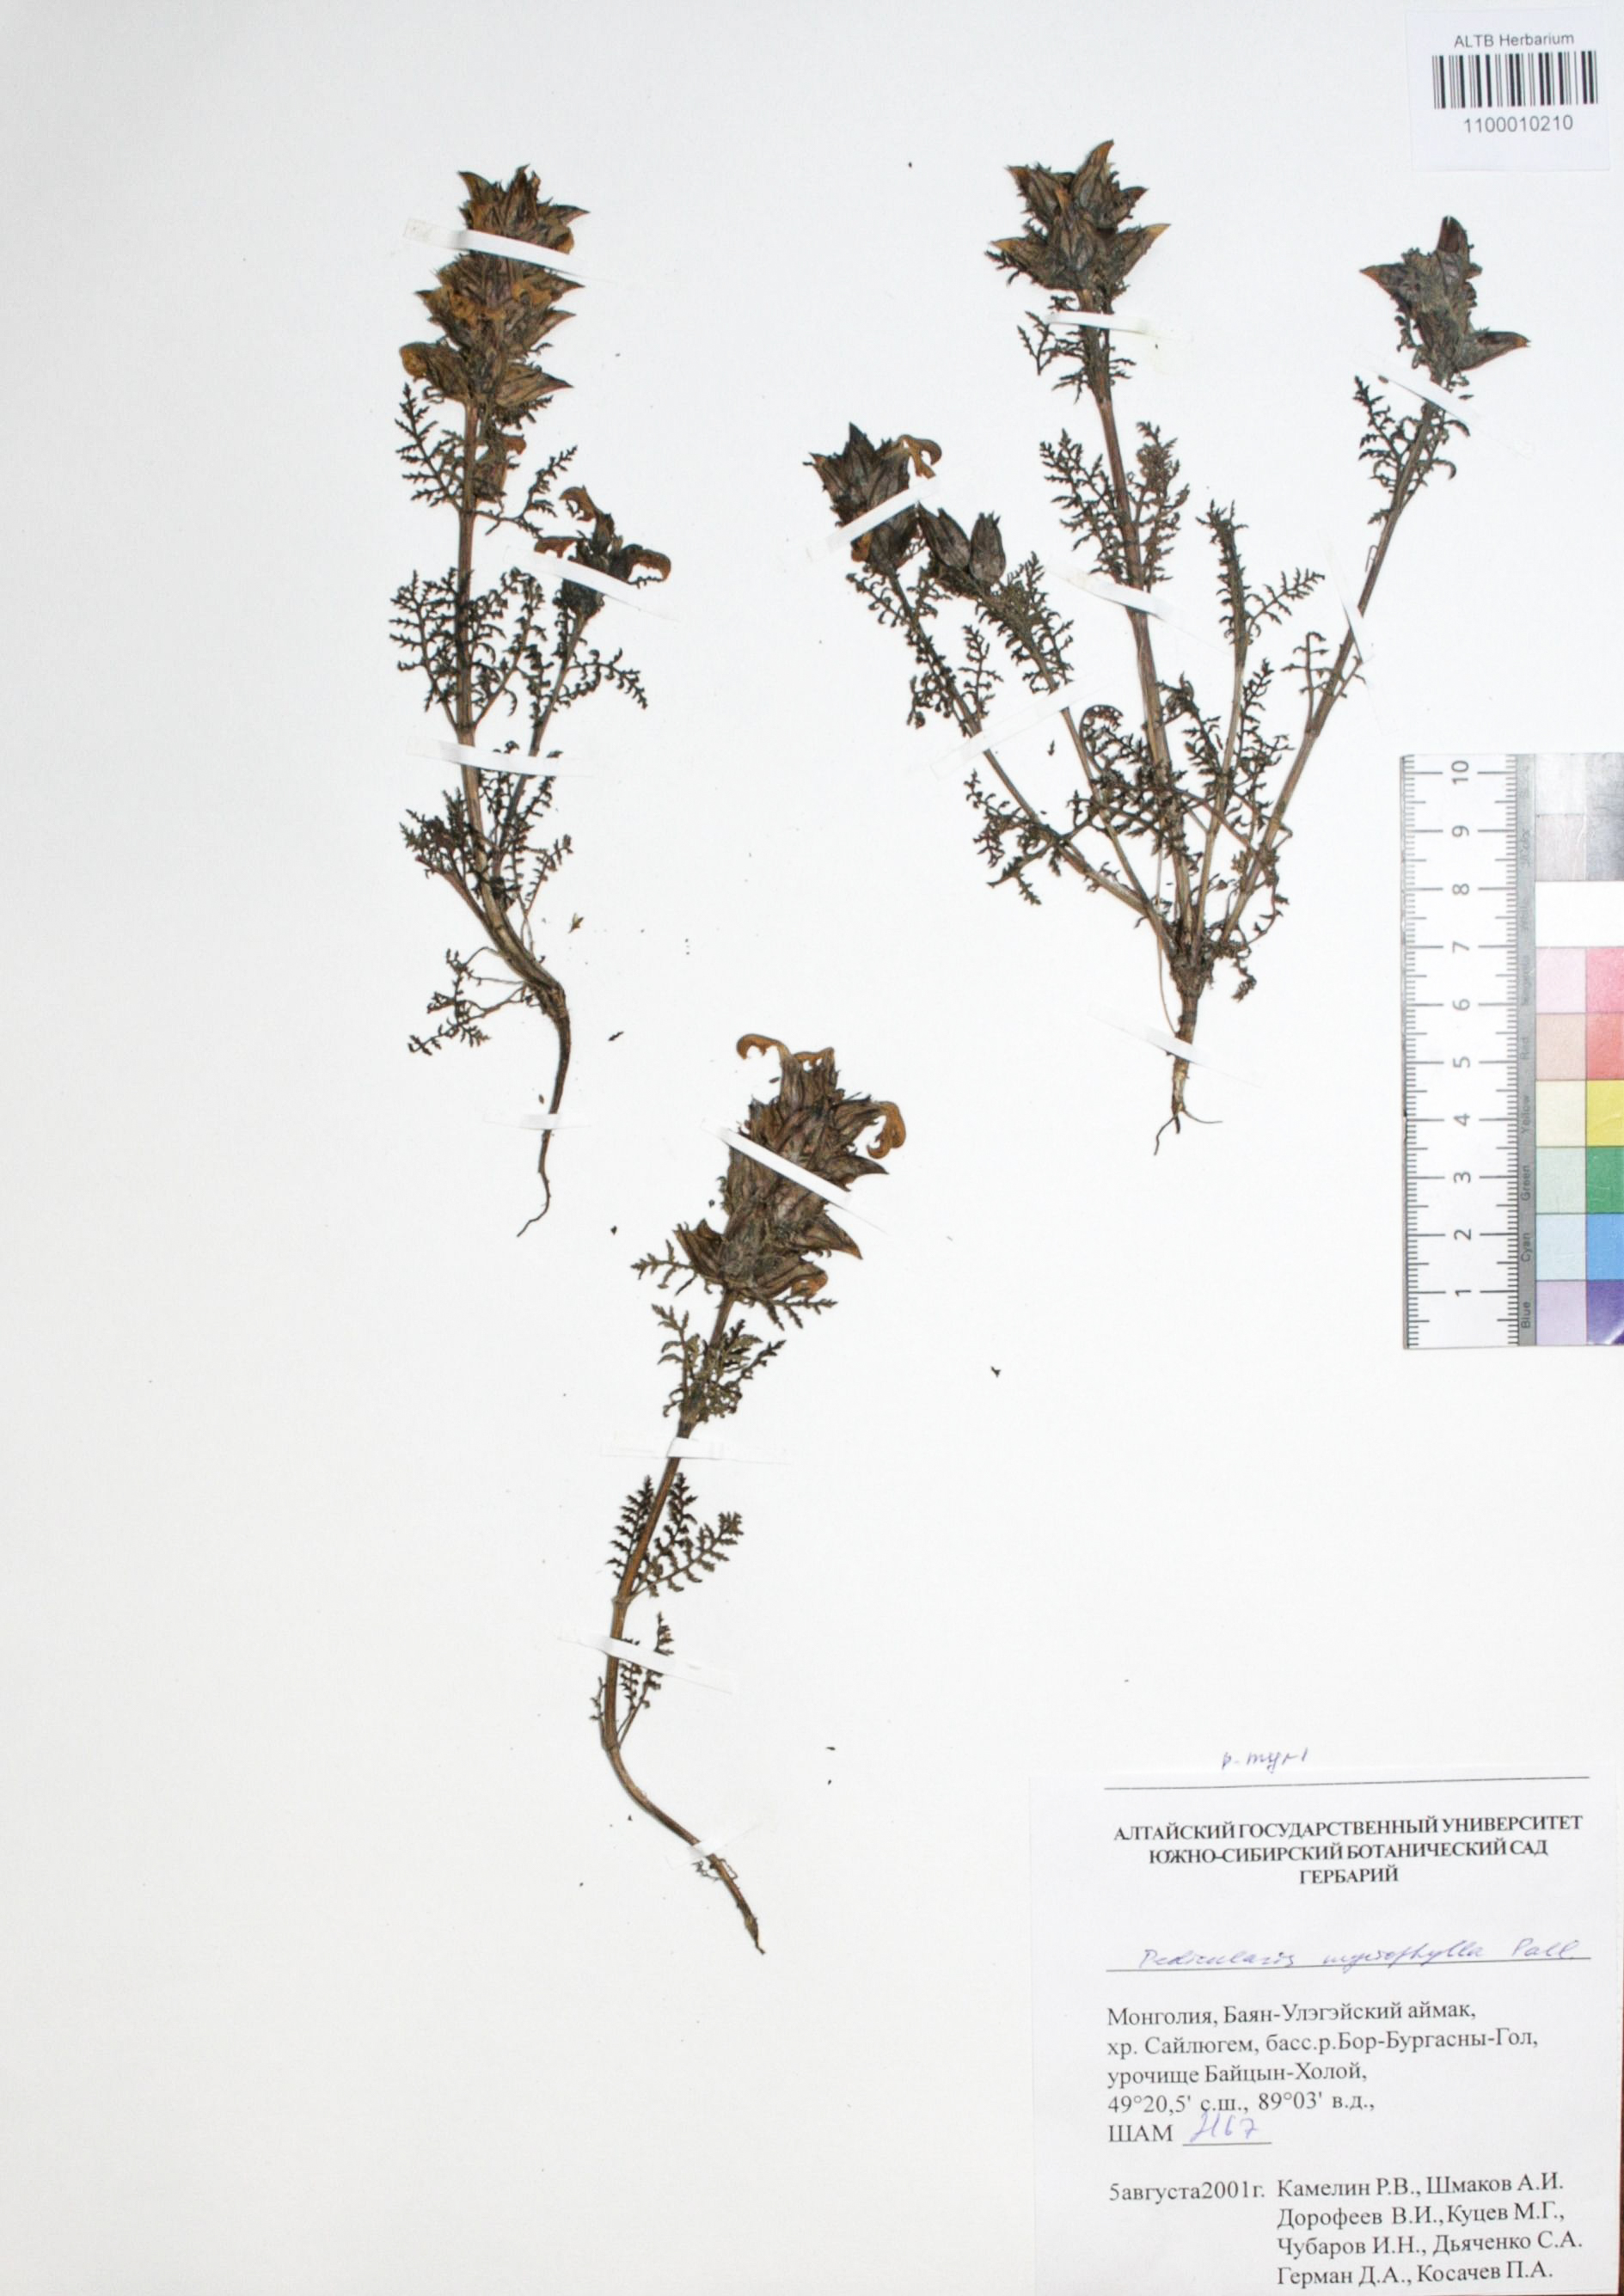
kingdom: Plantae
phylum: Tracheophyta
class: Magnoliopsida
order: Lamiales
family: Orobanchaceae
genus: Pedicularis
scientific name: Pedicularis myriophylla
